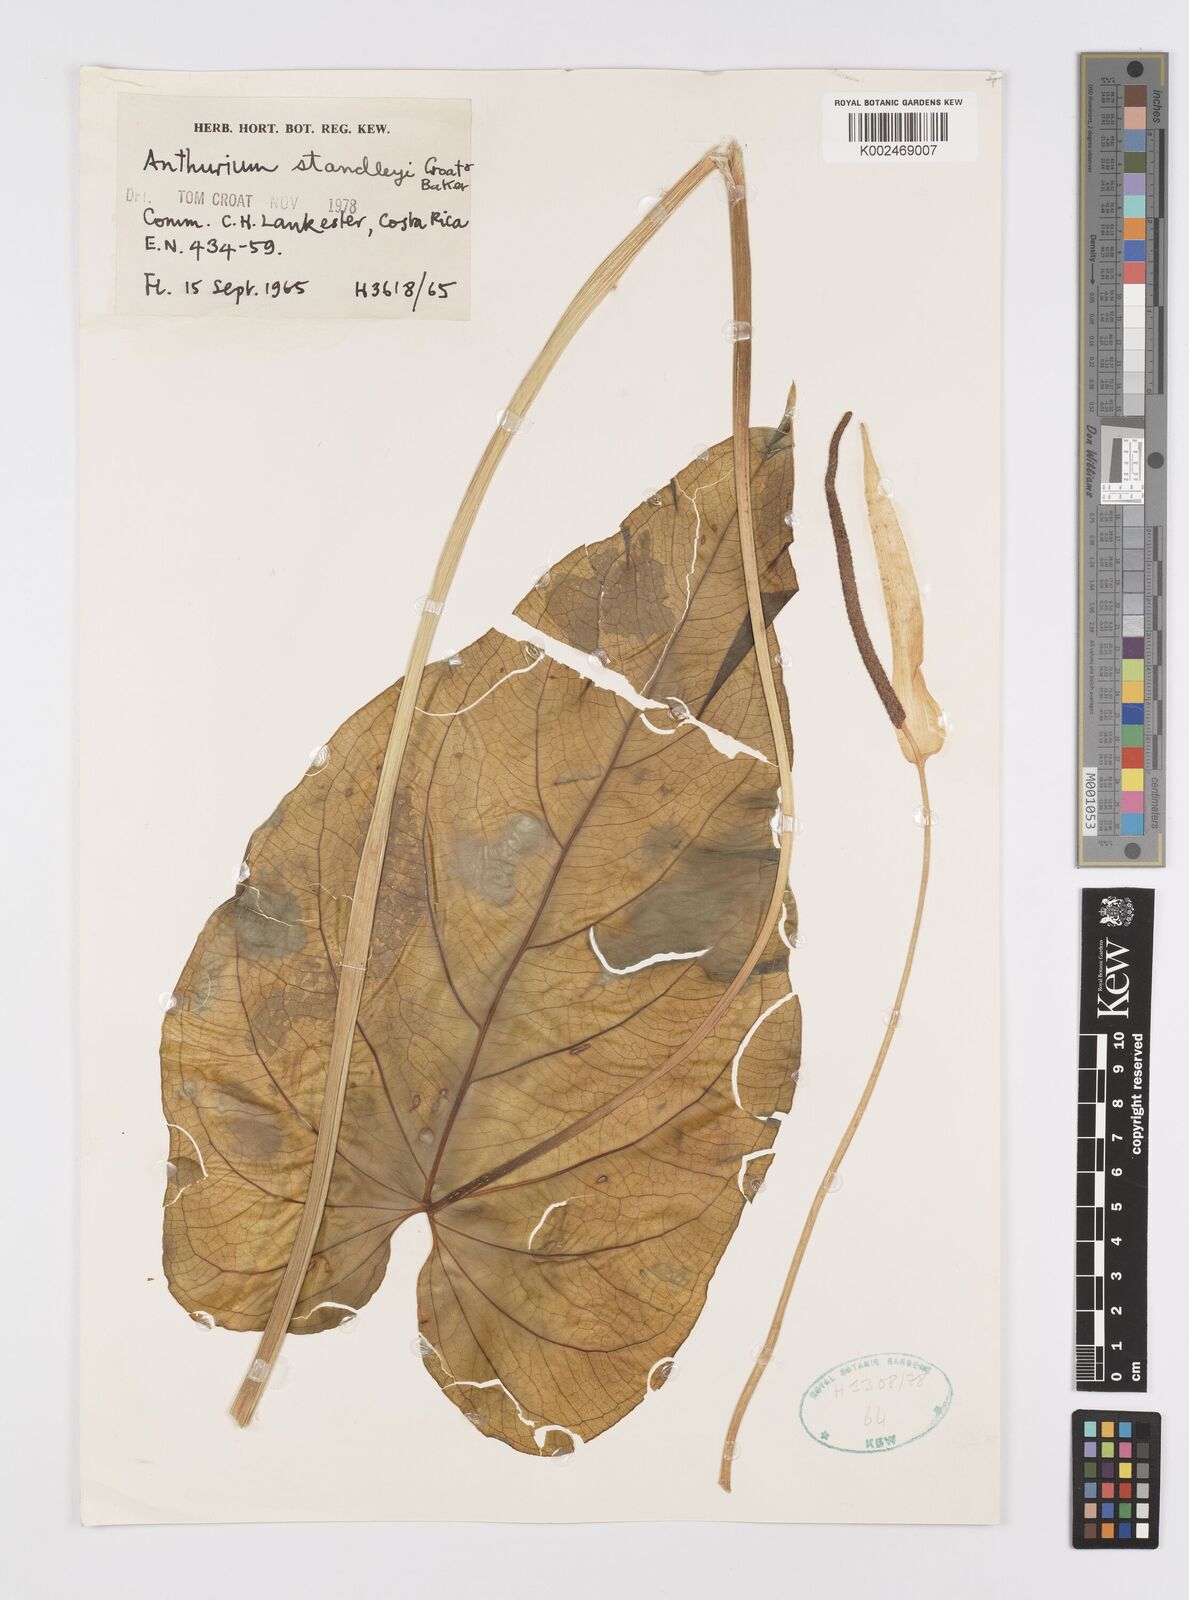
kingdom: Plantae
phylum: Tracheophyta
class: Liliopsida
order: Alismatales
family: Araceae
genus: Anthurium
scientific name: Anthurium standleyi
